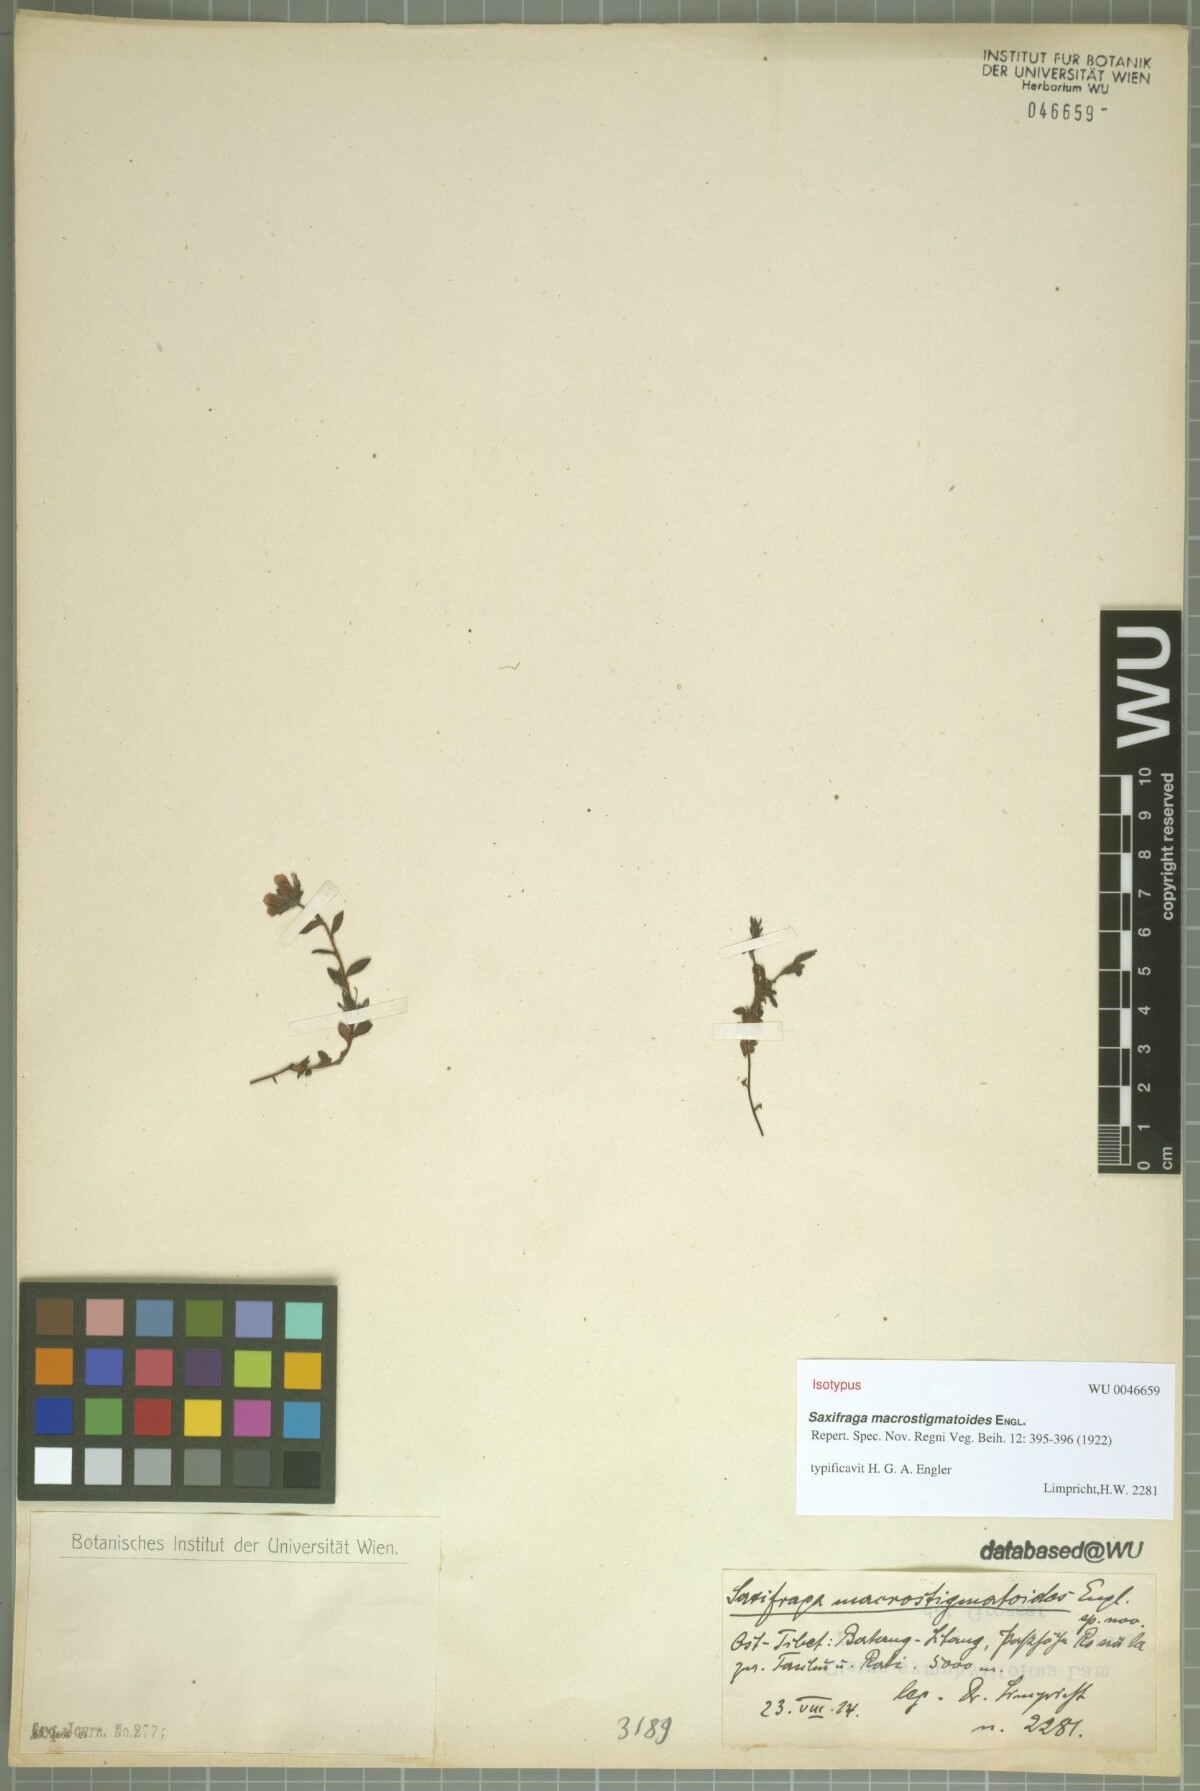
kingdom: Plantae
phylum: Tracheophyta
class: Magnoliopsida
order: Saxifragales
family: Saxifragaceae
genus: Saxifraga
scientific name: Saxifraga macrostigmatoides
